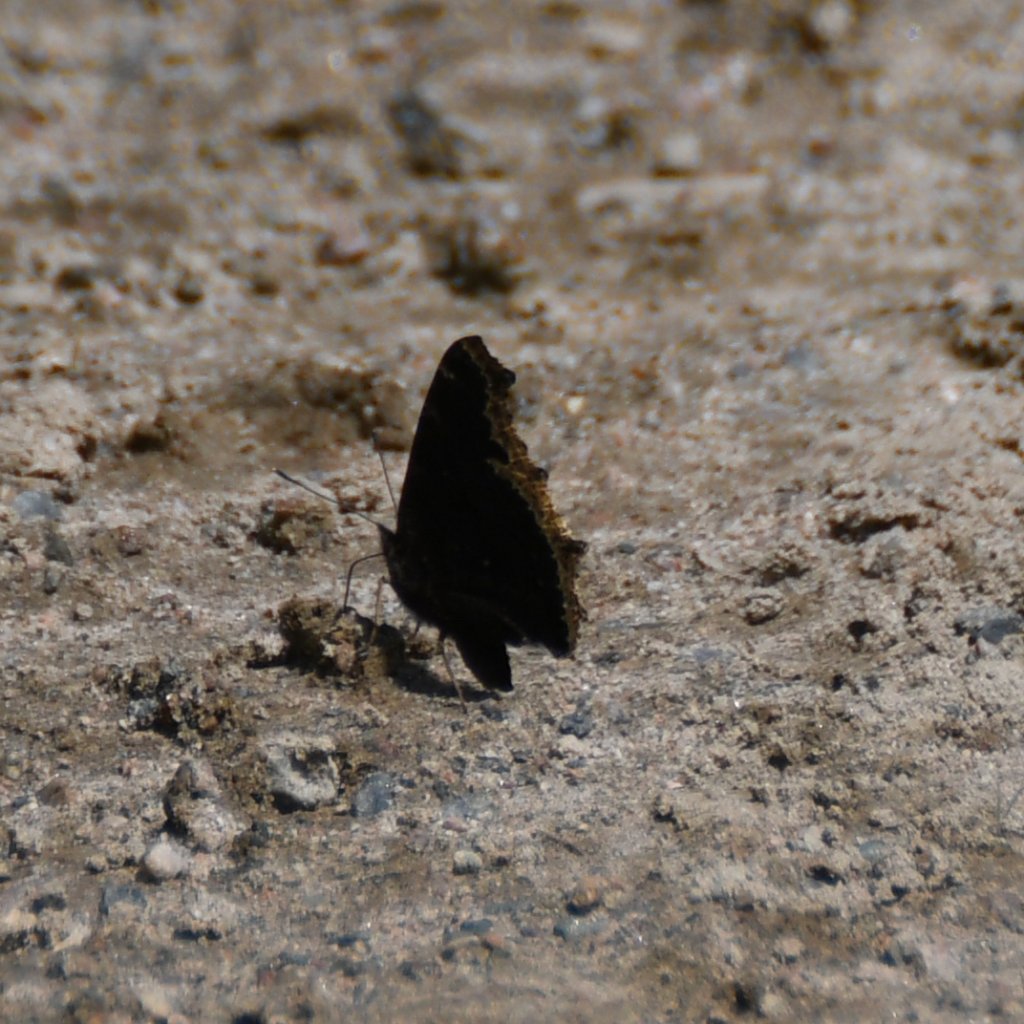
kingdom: Animalia
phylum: Arthropoda
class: Insecta
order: Lepidoptera
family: Nymphalidae
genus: Nymphalis
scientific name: Nymphalis antiopa
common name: Mourning Cloak
